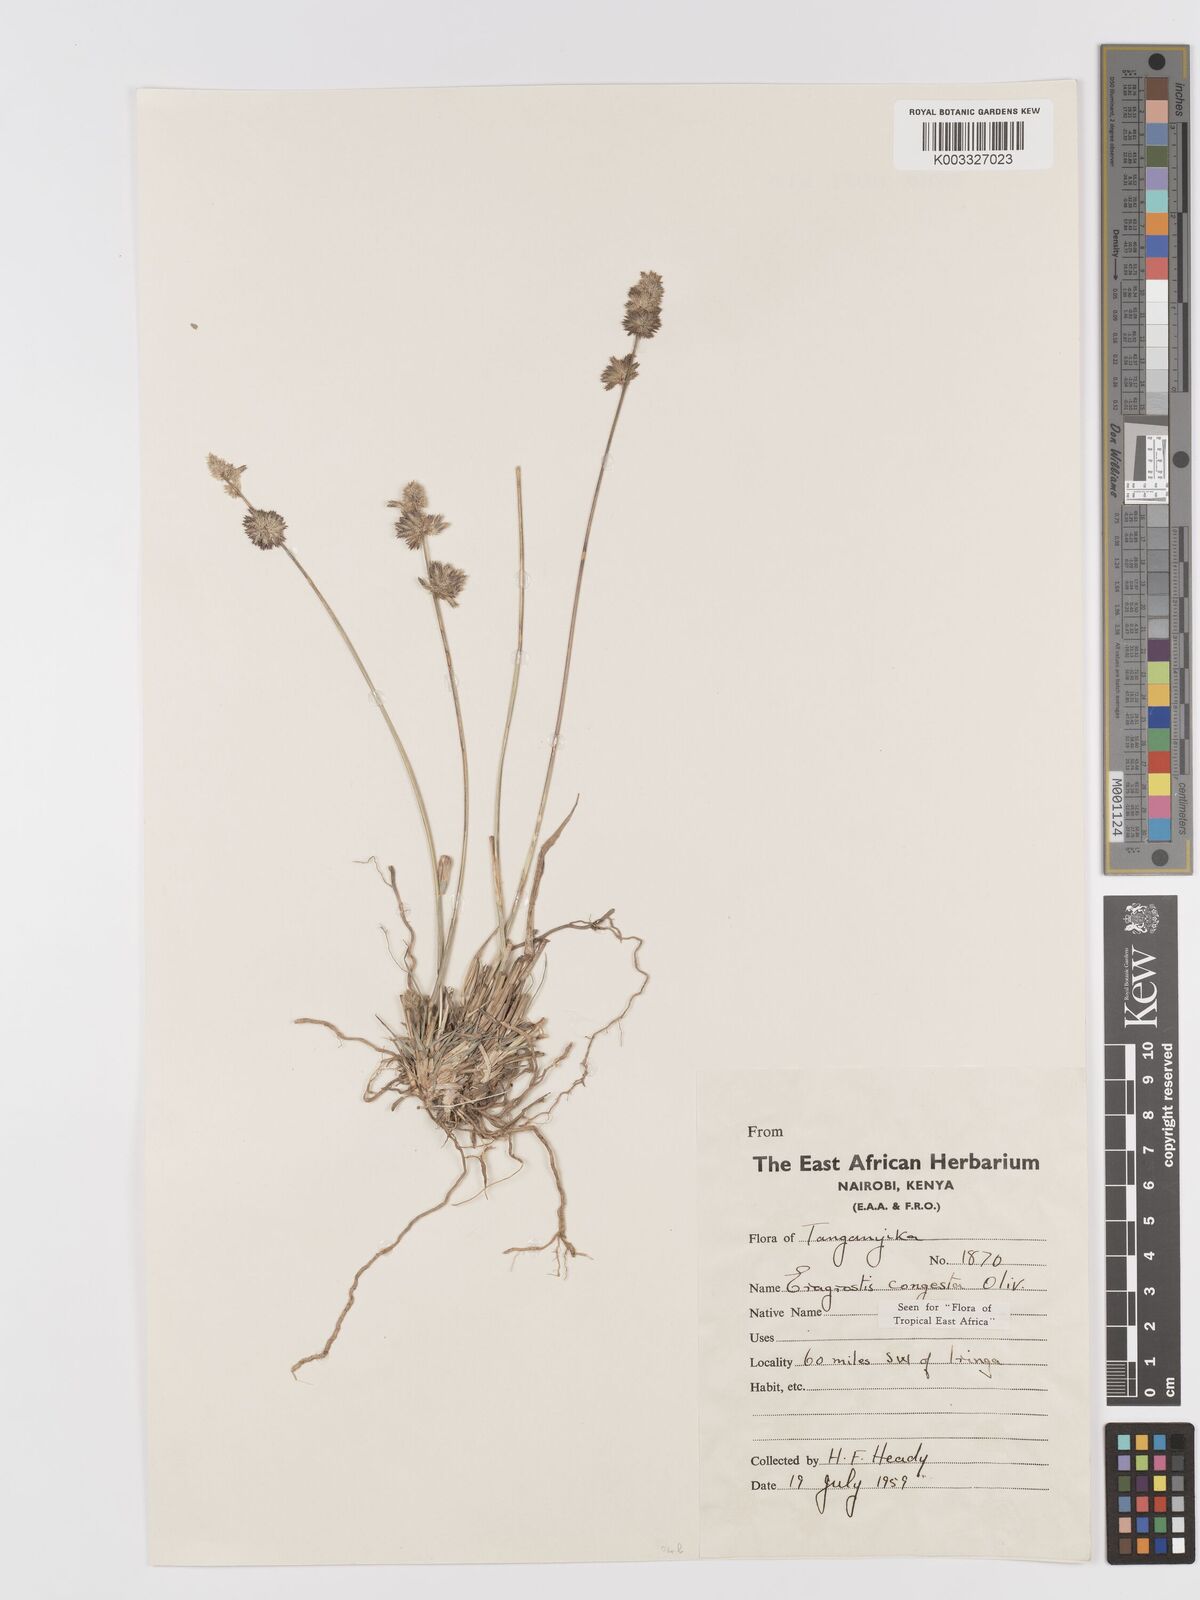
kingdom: Plantae
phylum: Tracheophyta
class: Liliopsida
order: Poales
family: Poaceae
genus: Eragrostis
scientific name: Eragrostis congesta
